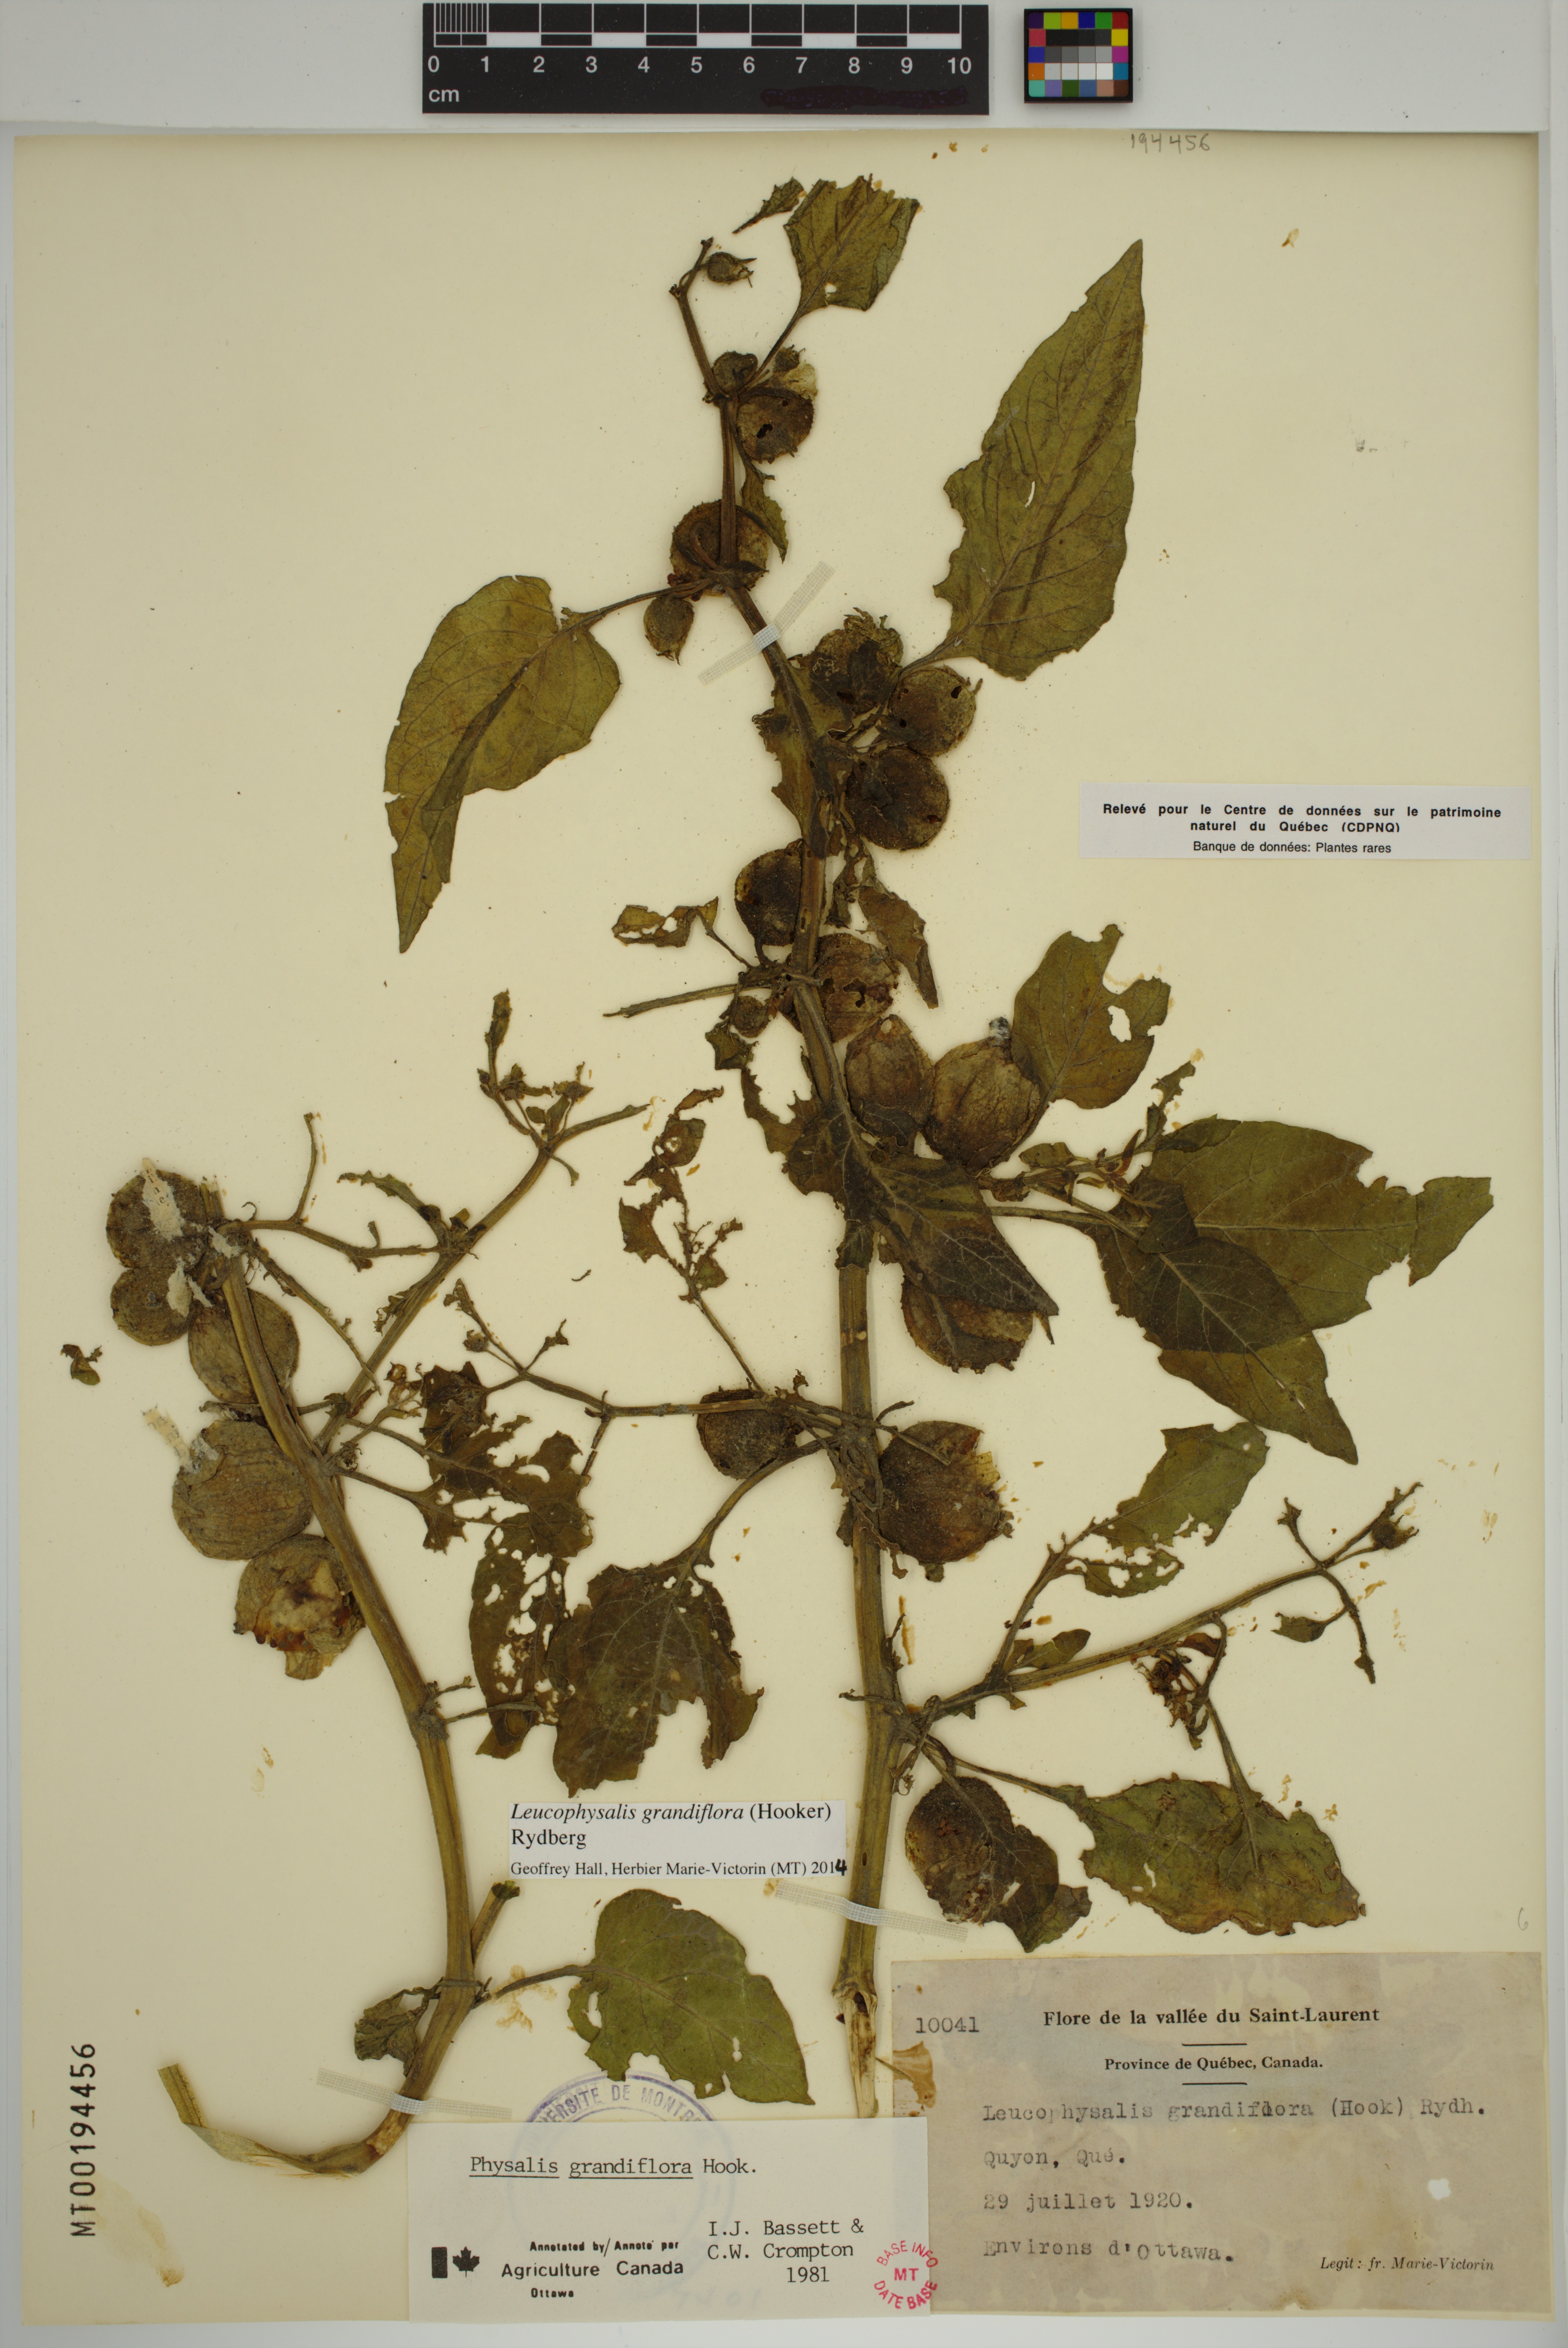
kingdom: Plantae
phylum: Tracheophyta
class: Magnoliopsida
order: Solanales
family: Solanaceae
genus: Leucophysalis
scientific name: Leucophysalis grandiflora
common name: Large false ground-cherry
